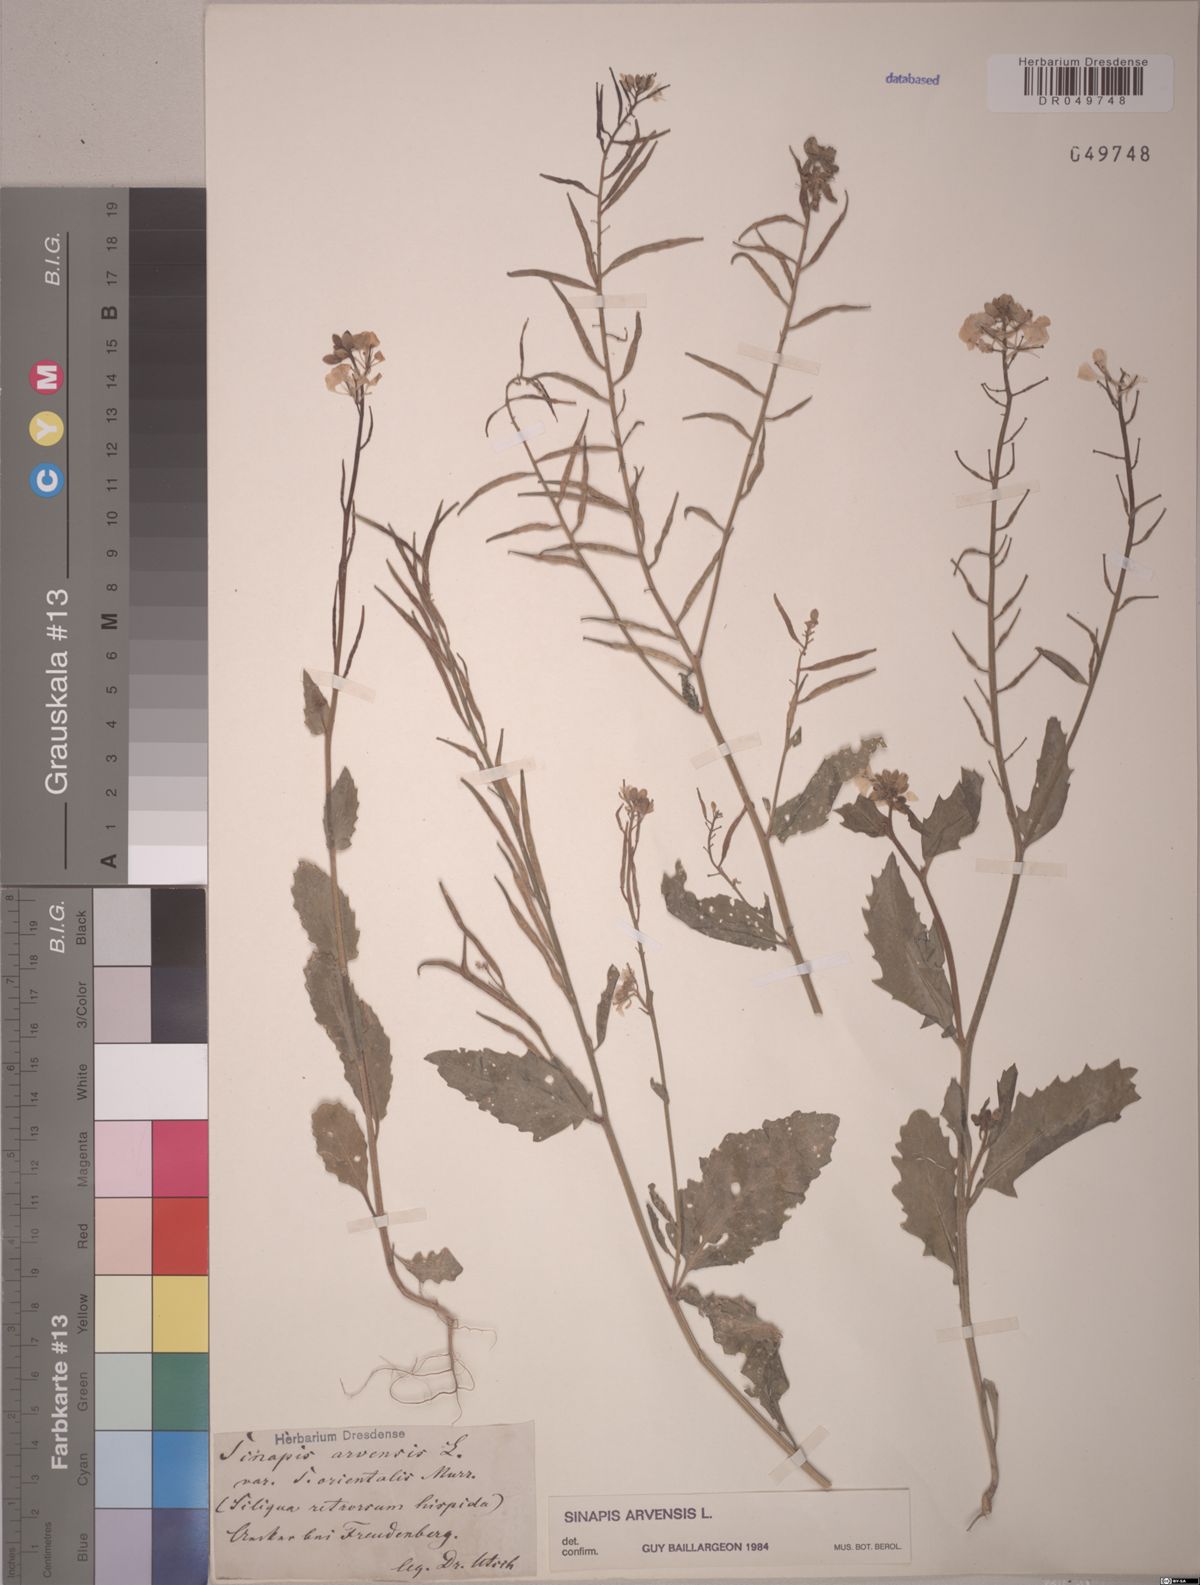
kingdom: Plantae
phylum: Tracheophyta
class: Magnoliopsida
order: Brassicales
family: Brassicaceae
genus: Sinapis
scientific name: Sinapis arvensis
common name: Charlock
